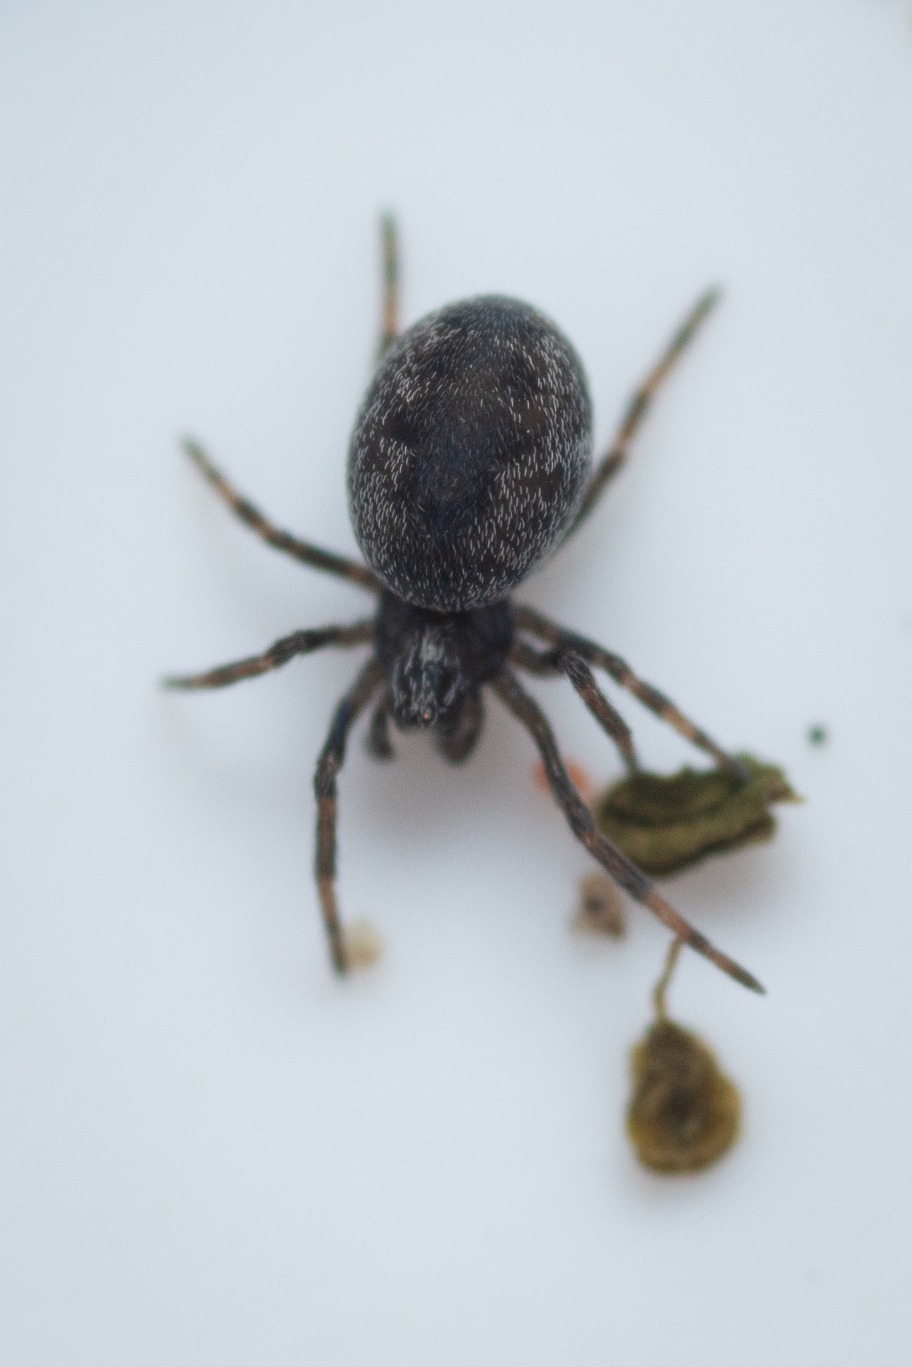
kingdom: Animalia
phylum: Arthropoda
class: Arachnida
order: Araneae
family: Dictynidae
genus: Brigittea
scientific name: Brigittea latens
